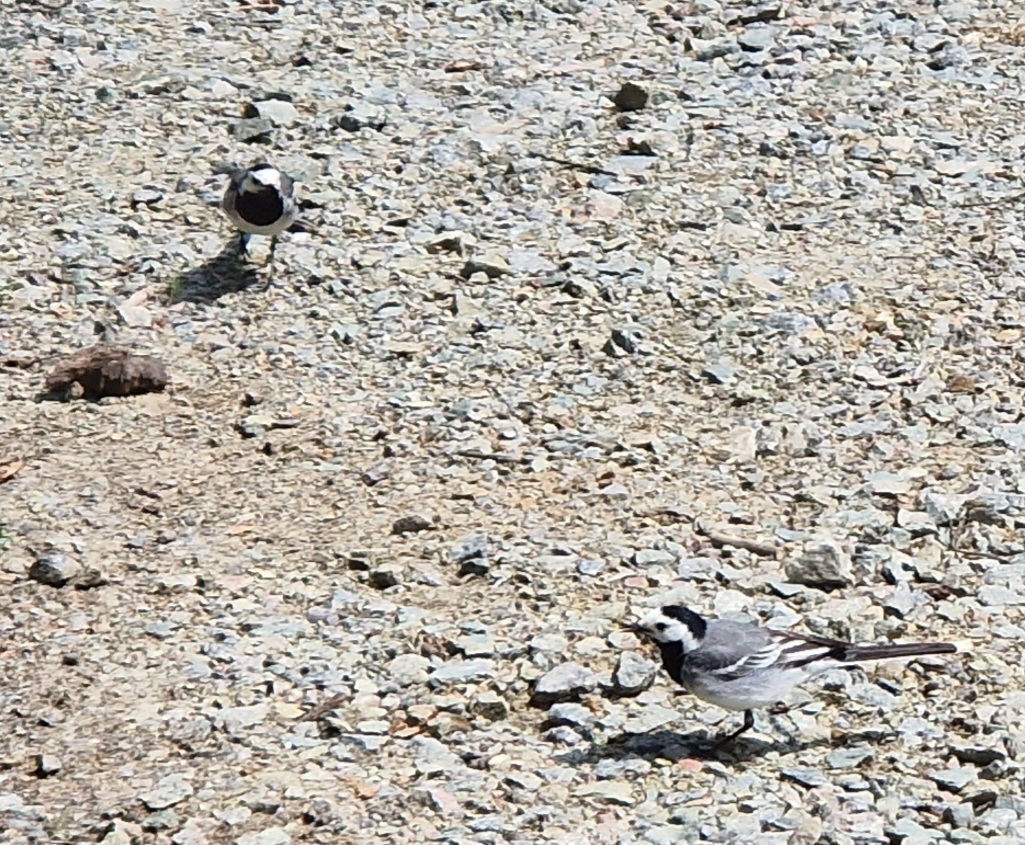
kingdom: Animalia
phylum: Chordata
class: Aves
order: Passeriformes
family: Motacillidae
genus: Motacilla
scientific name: Motacilla alba
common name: Hvid vipstjert
